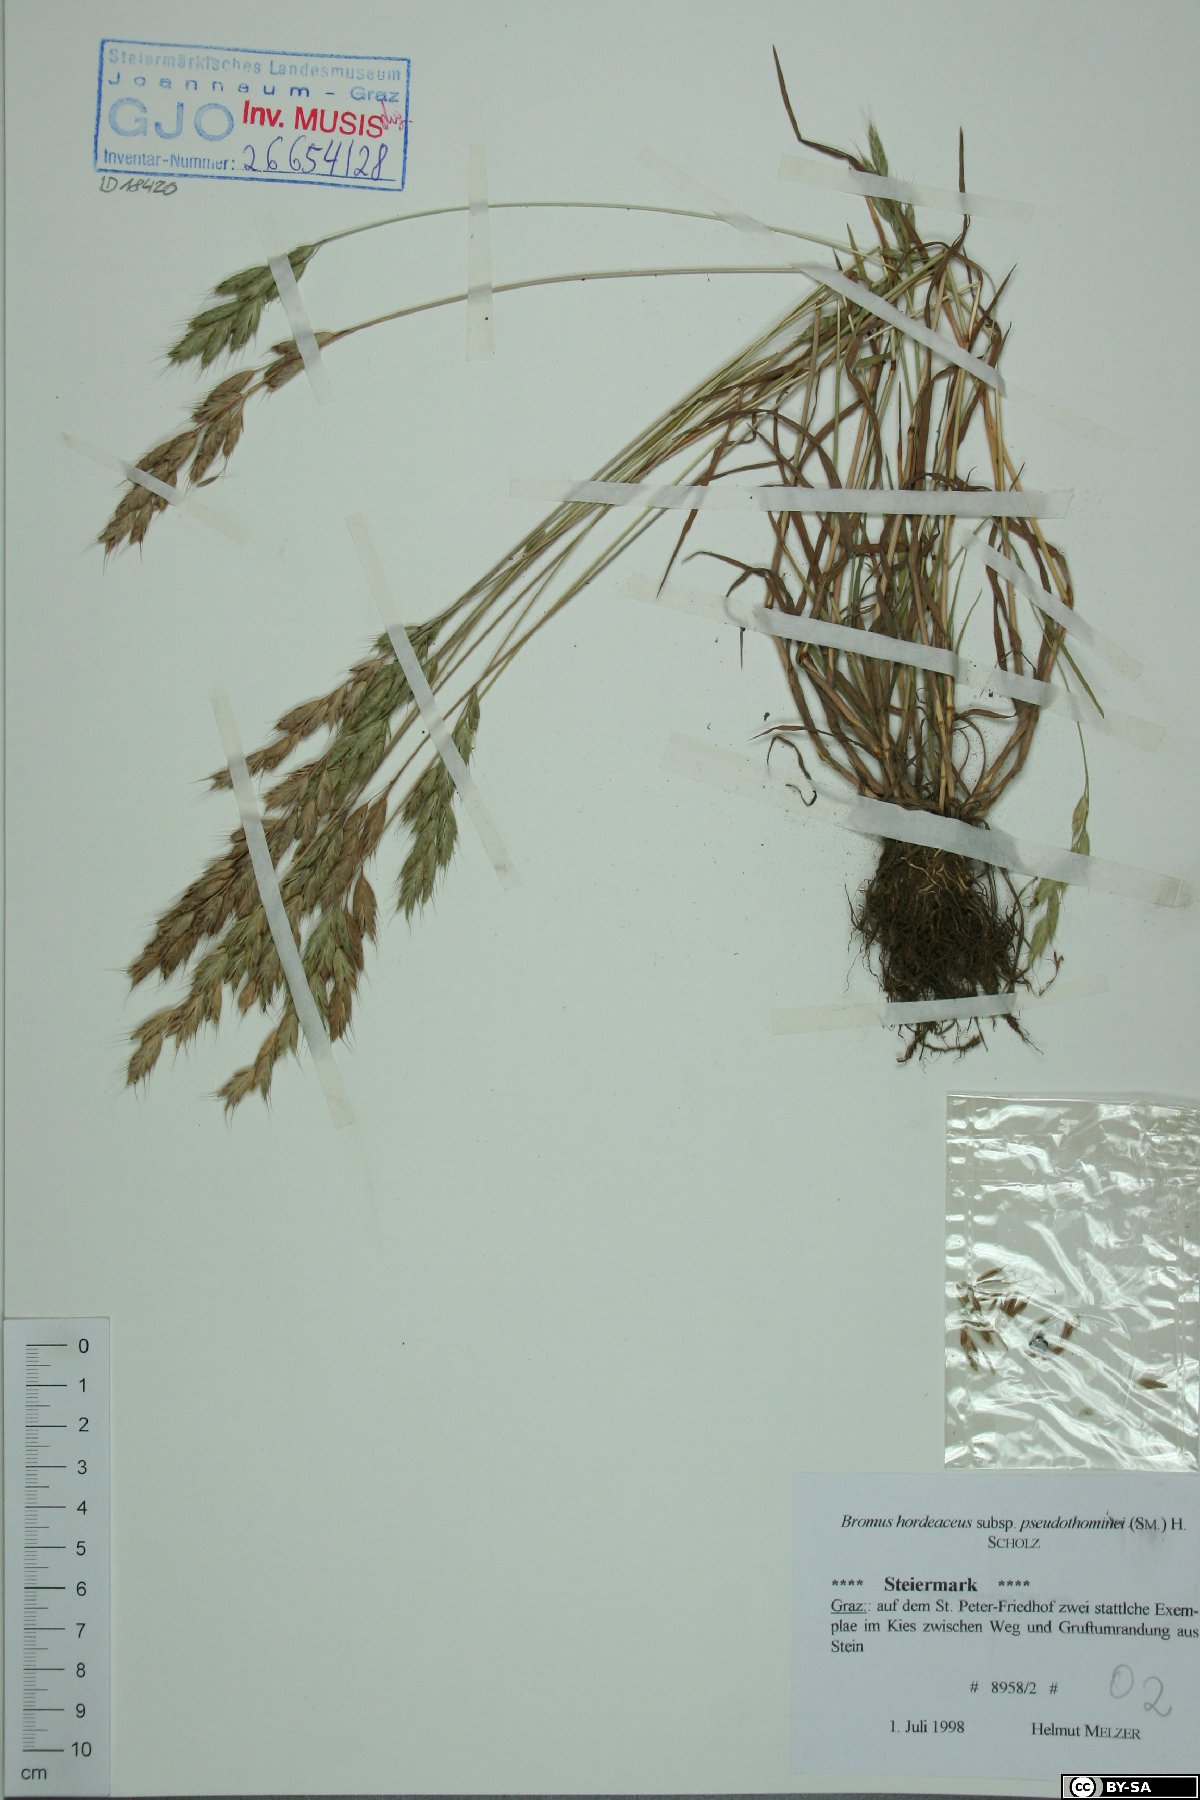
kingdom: Plantae
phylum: Tracheophyta
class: Liliopsida
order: Poales
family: Poaceae
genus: Bromus
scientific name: Bromus ferronii
